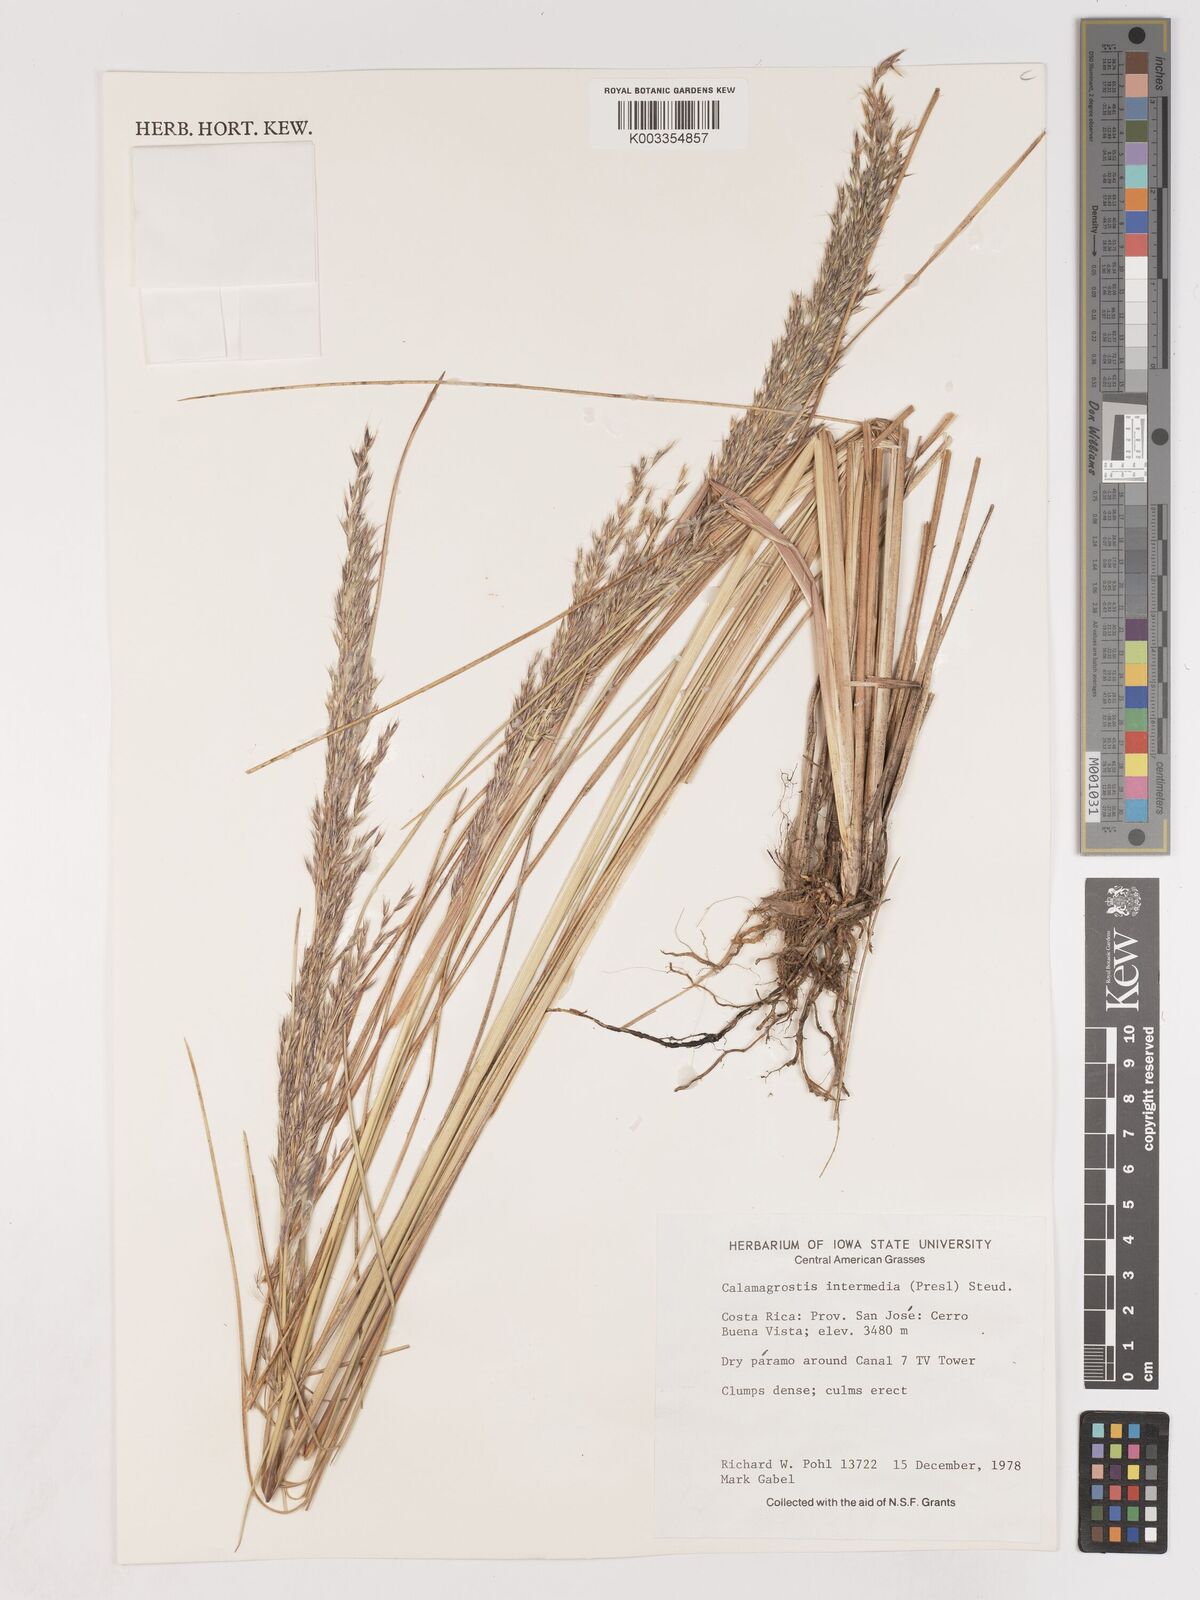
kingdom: Plantae
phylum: Tracheophyta
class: Liliopsida
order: Poales
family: Poaceae
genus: Cinnagrostis
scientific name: Cinnagrostis intermedia
